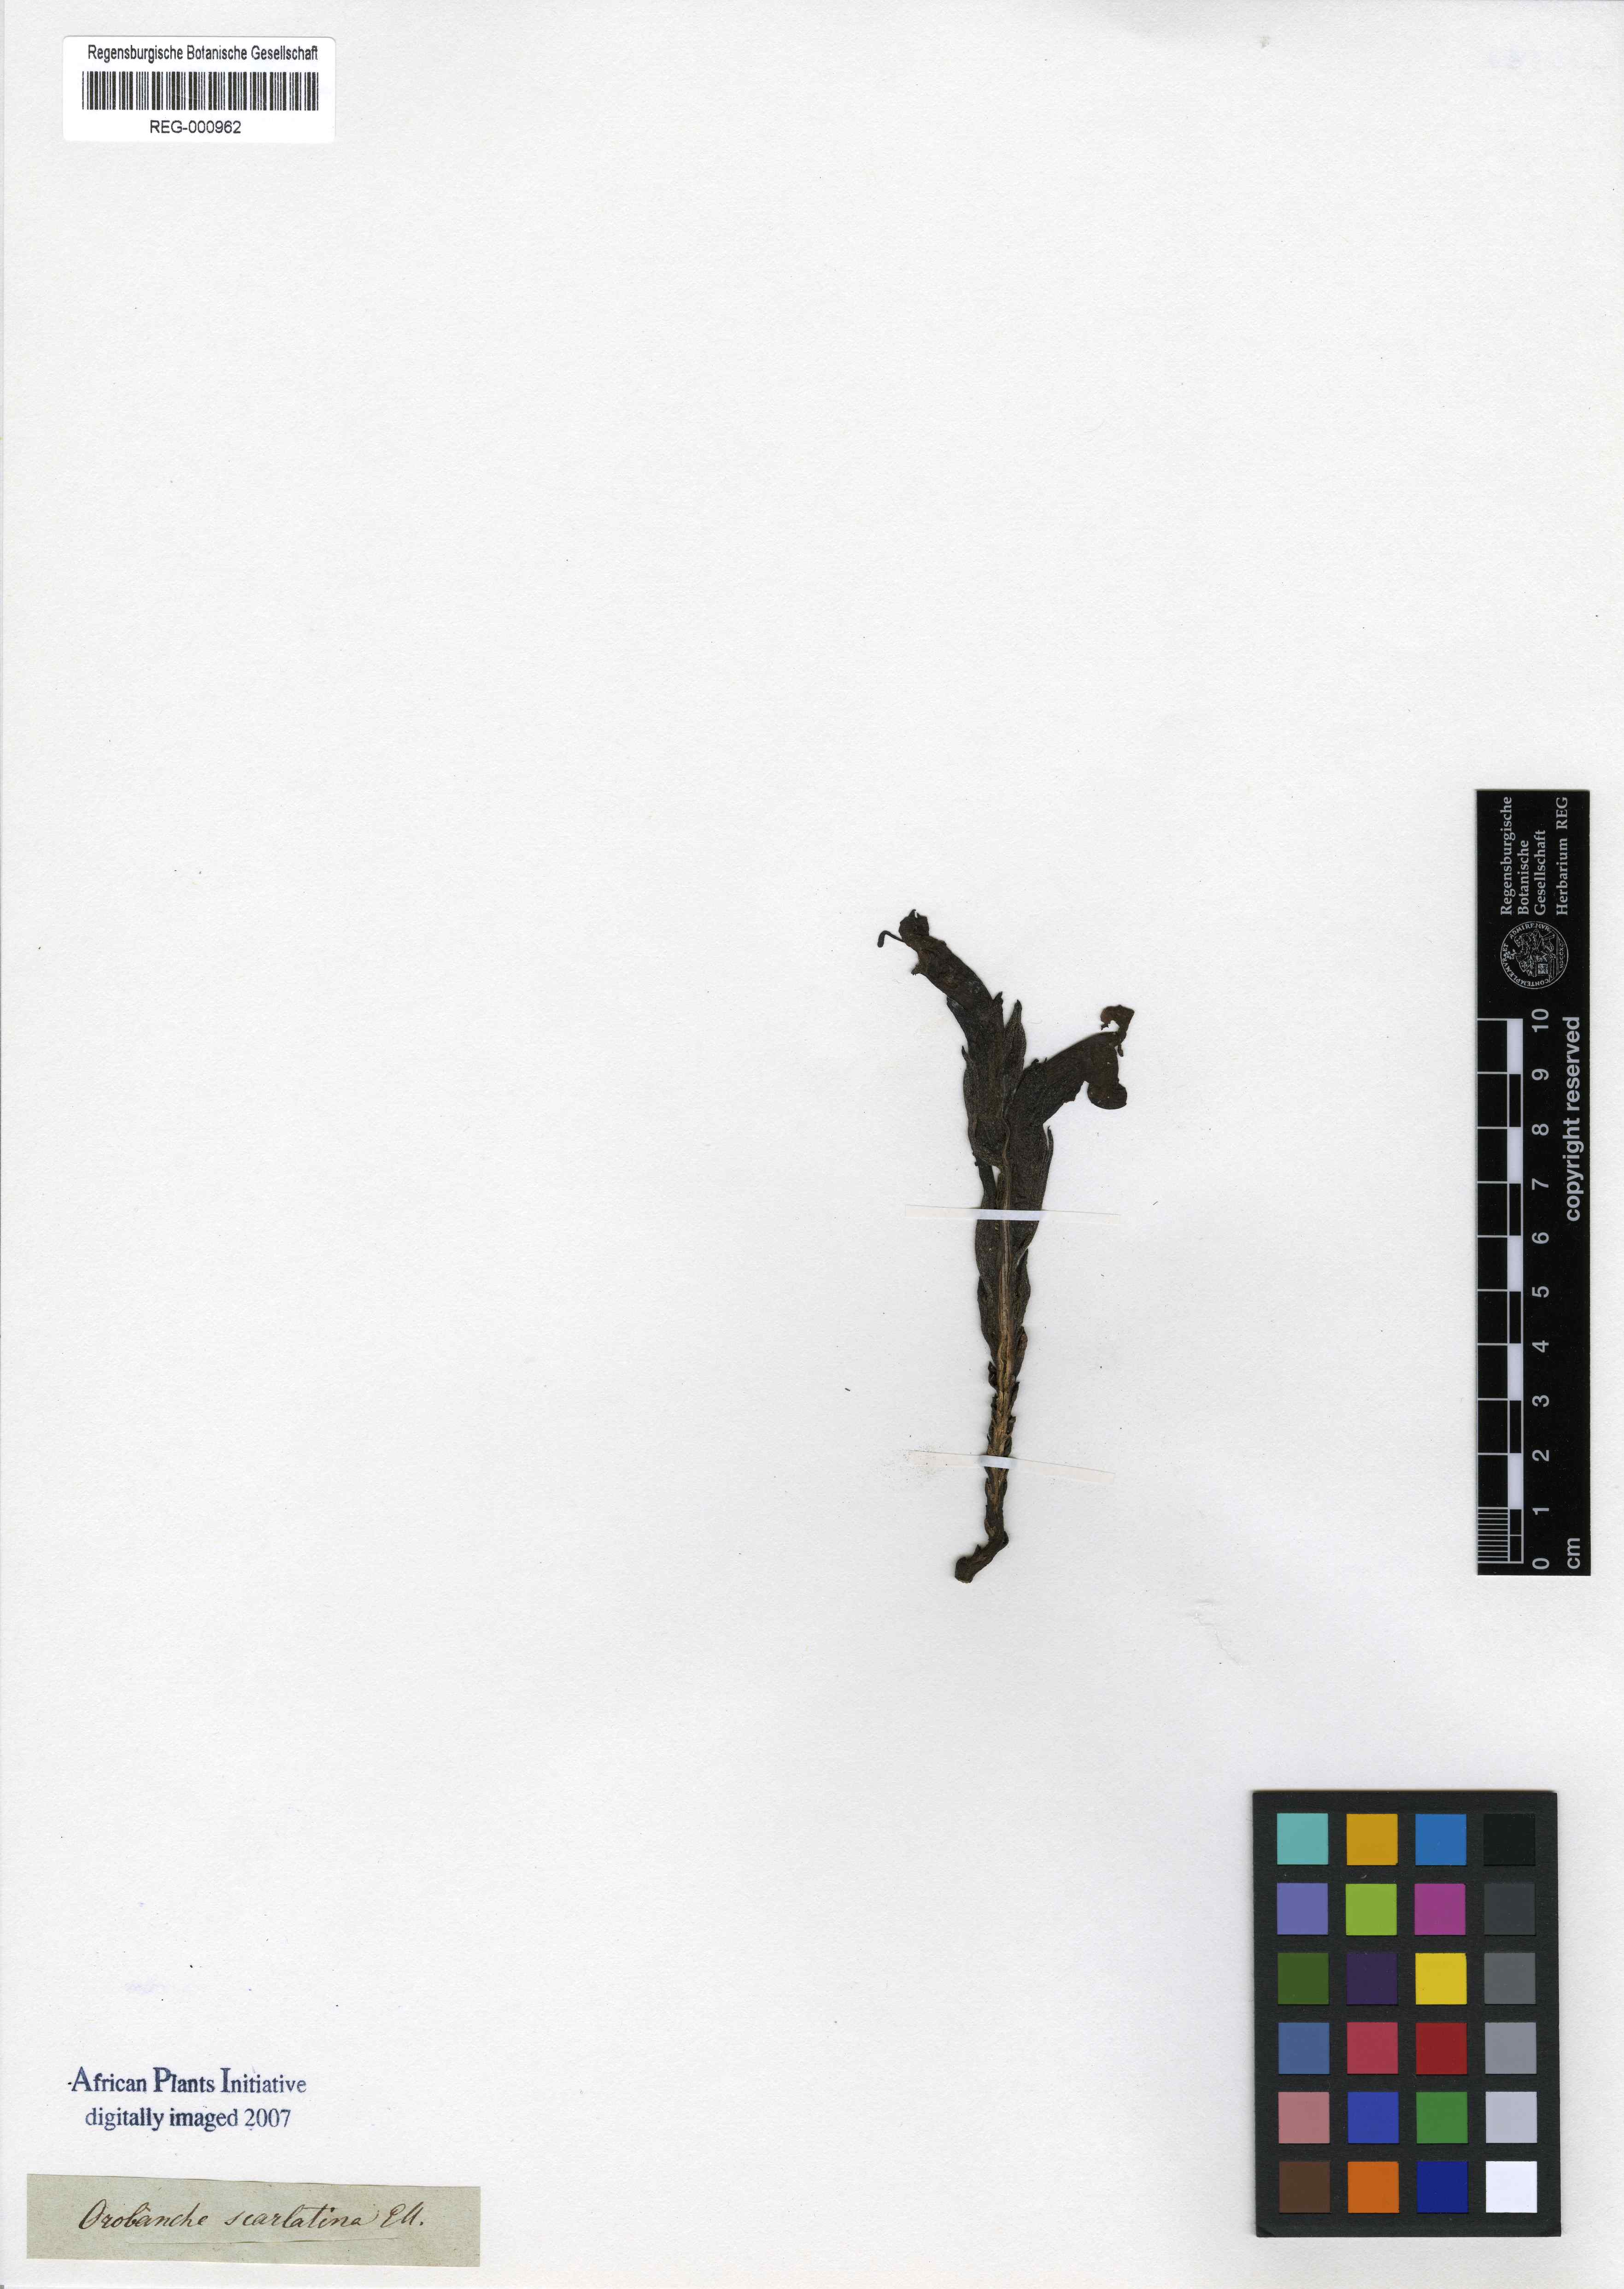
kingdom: Plantae
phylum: Tracheophyta
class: Magnoliopsida
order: Lamiales
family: Orobanchaceae
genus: Harveya
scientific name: Harveya scarlatina
